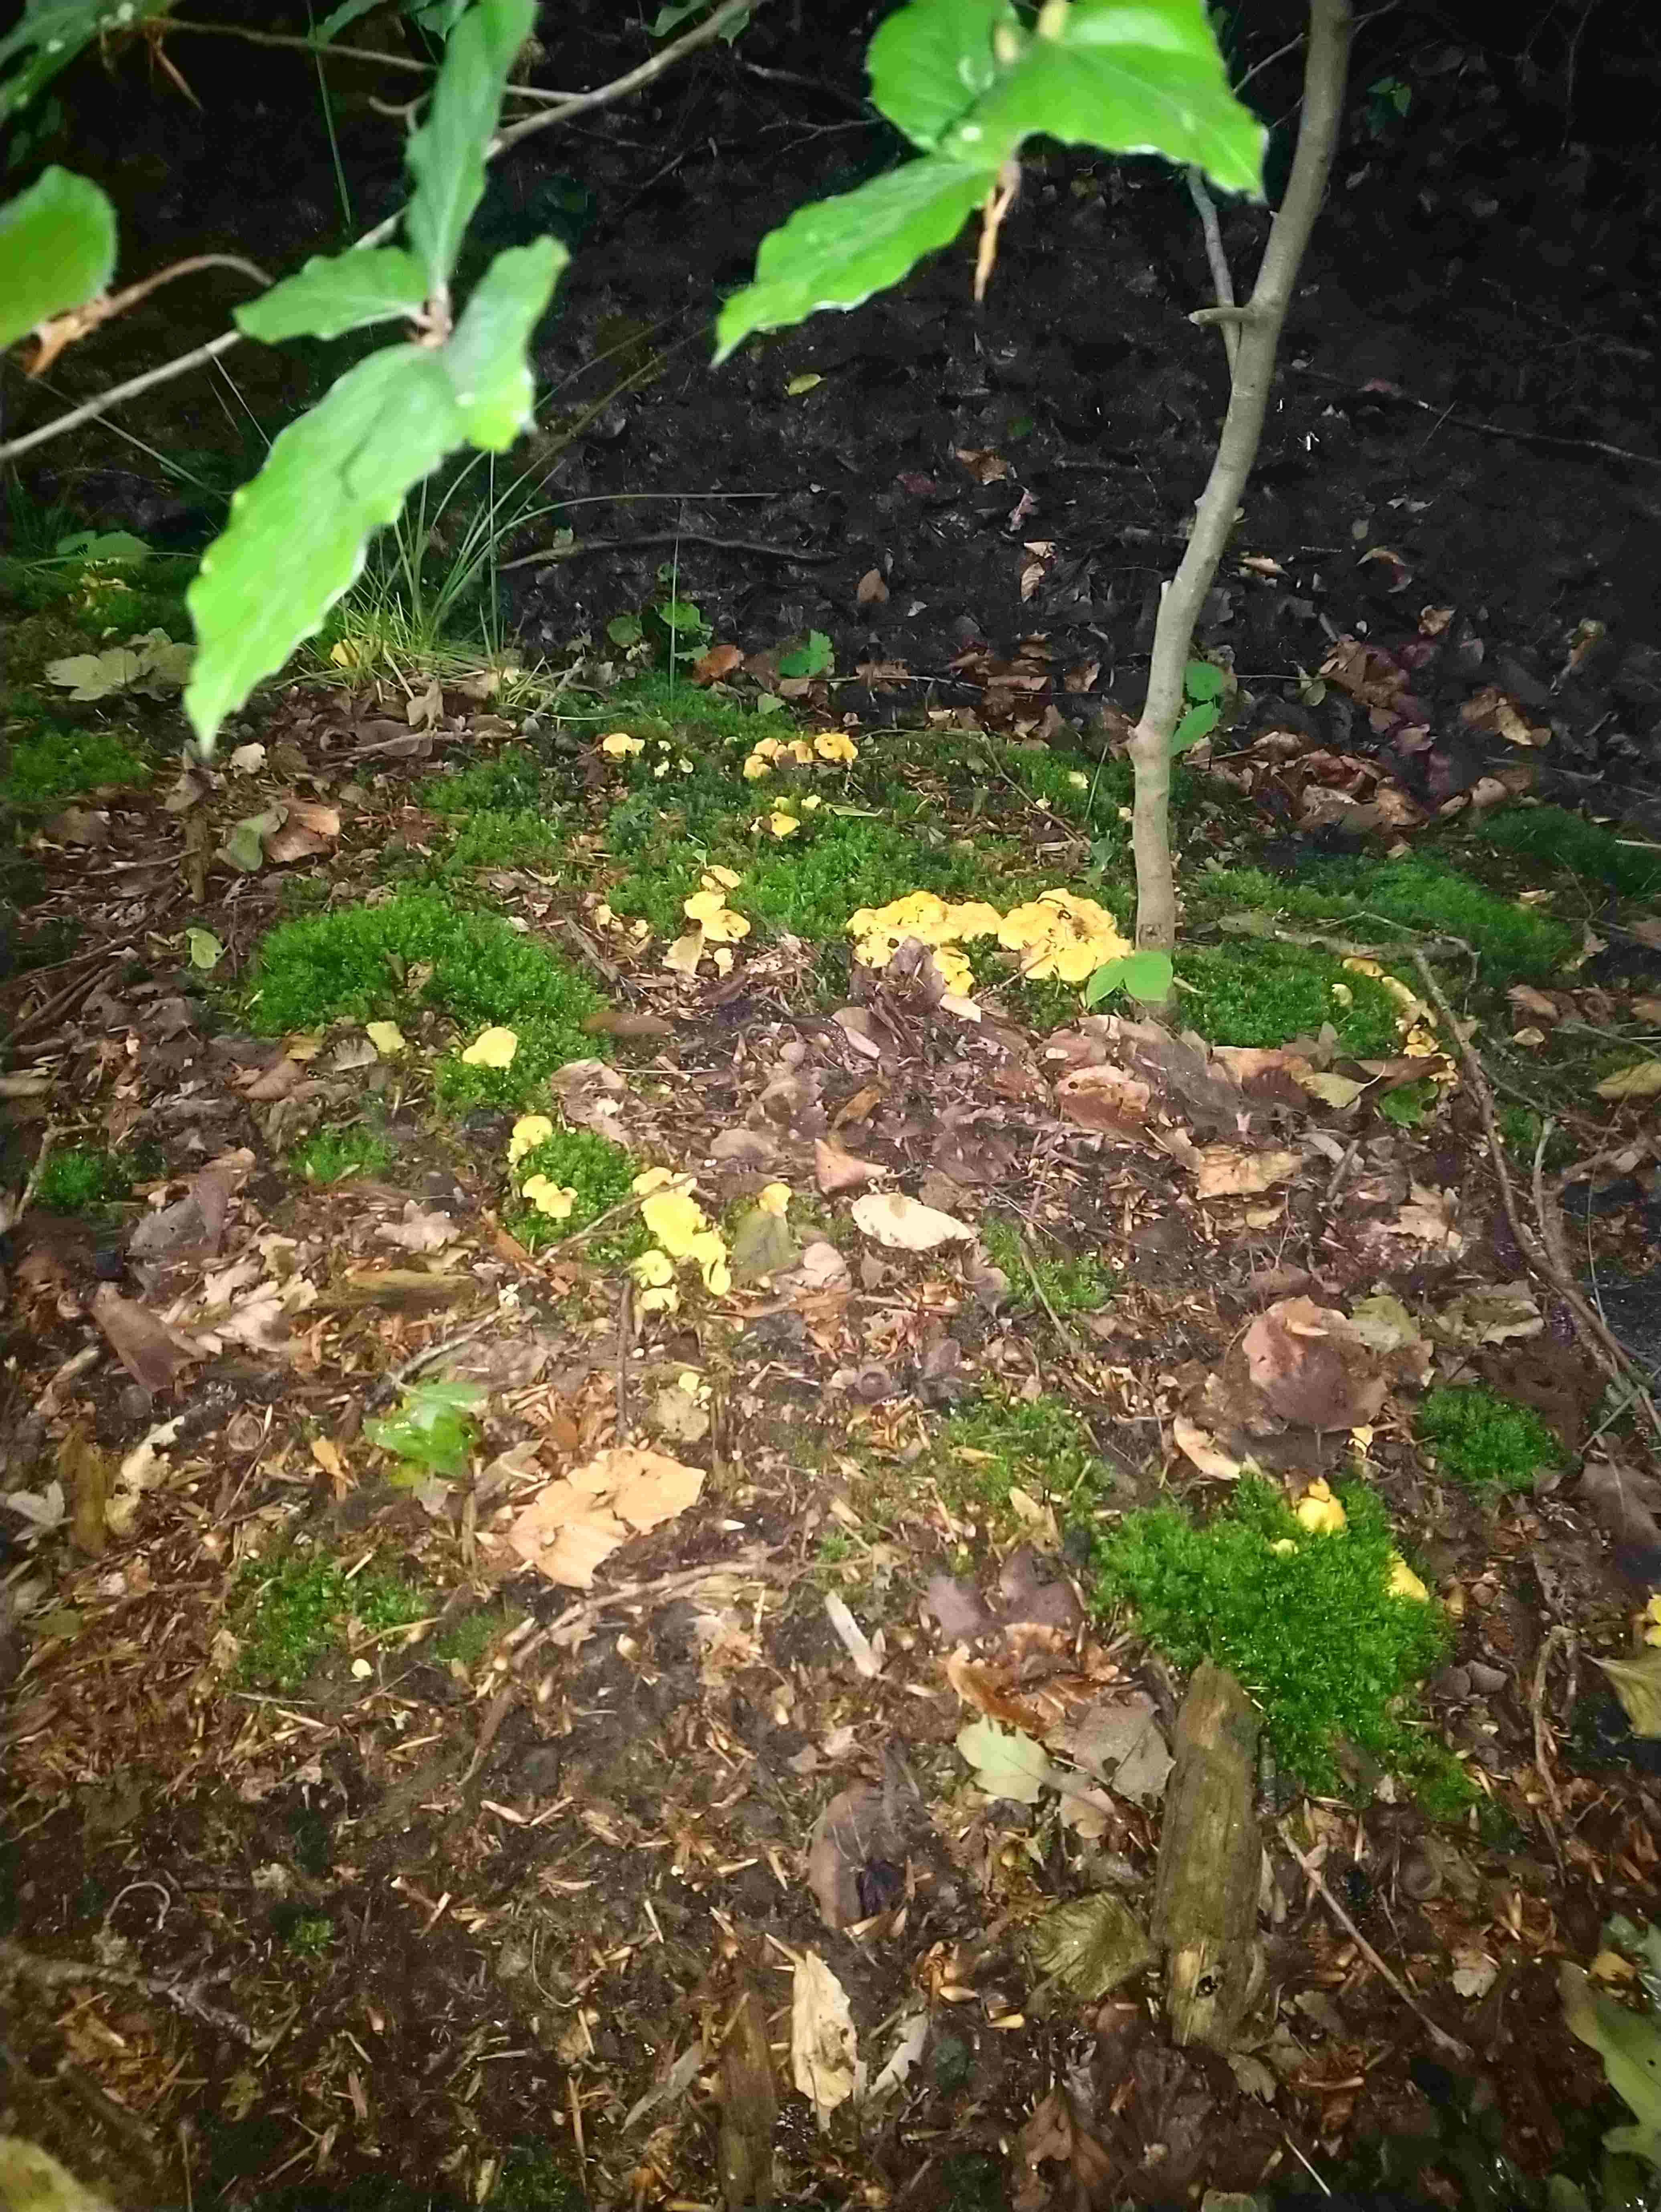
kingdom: Fungi
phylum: Basidiomycota
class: Agaricomycetes
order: Cantharellales
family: Hydnaceae
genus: Cantharellus
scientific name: Cantharellus cibarius
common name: almindelig kantarel
